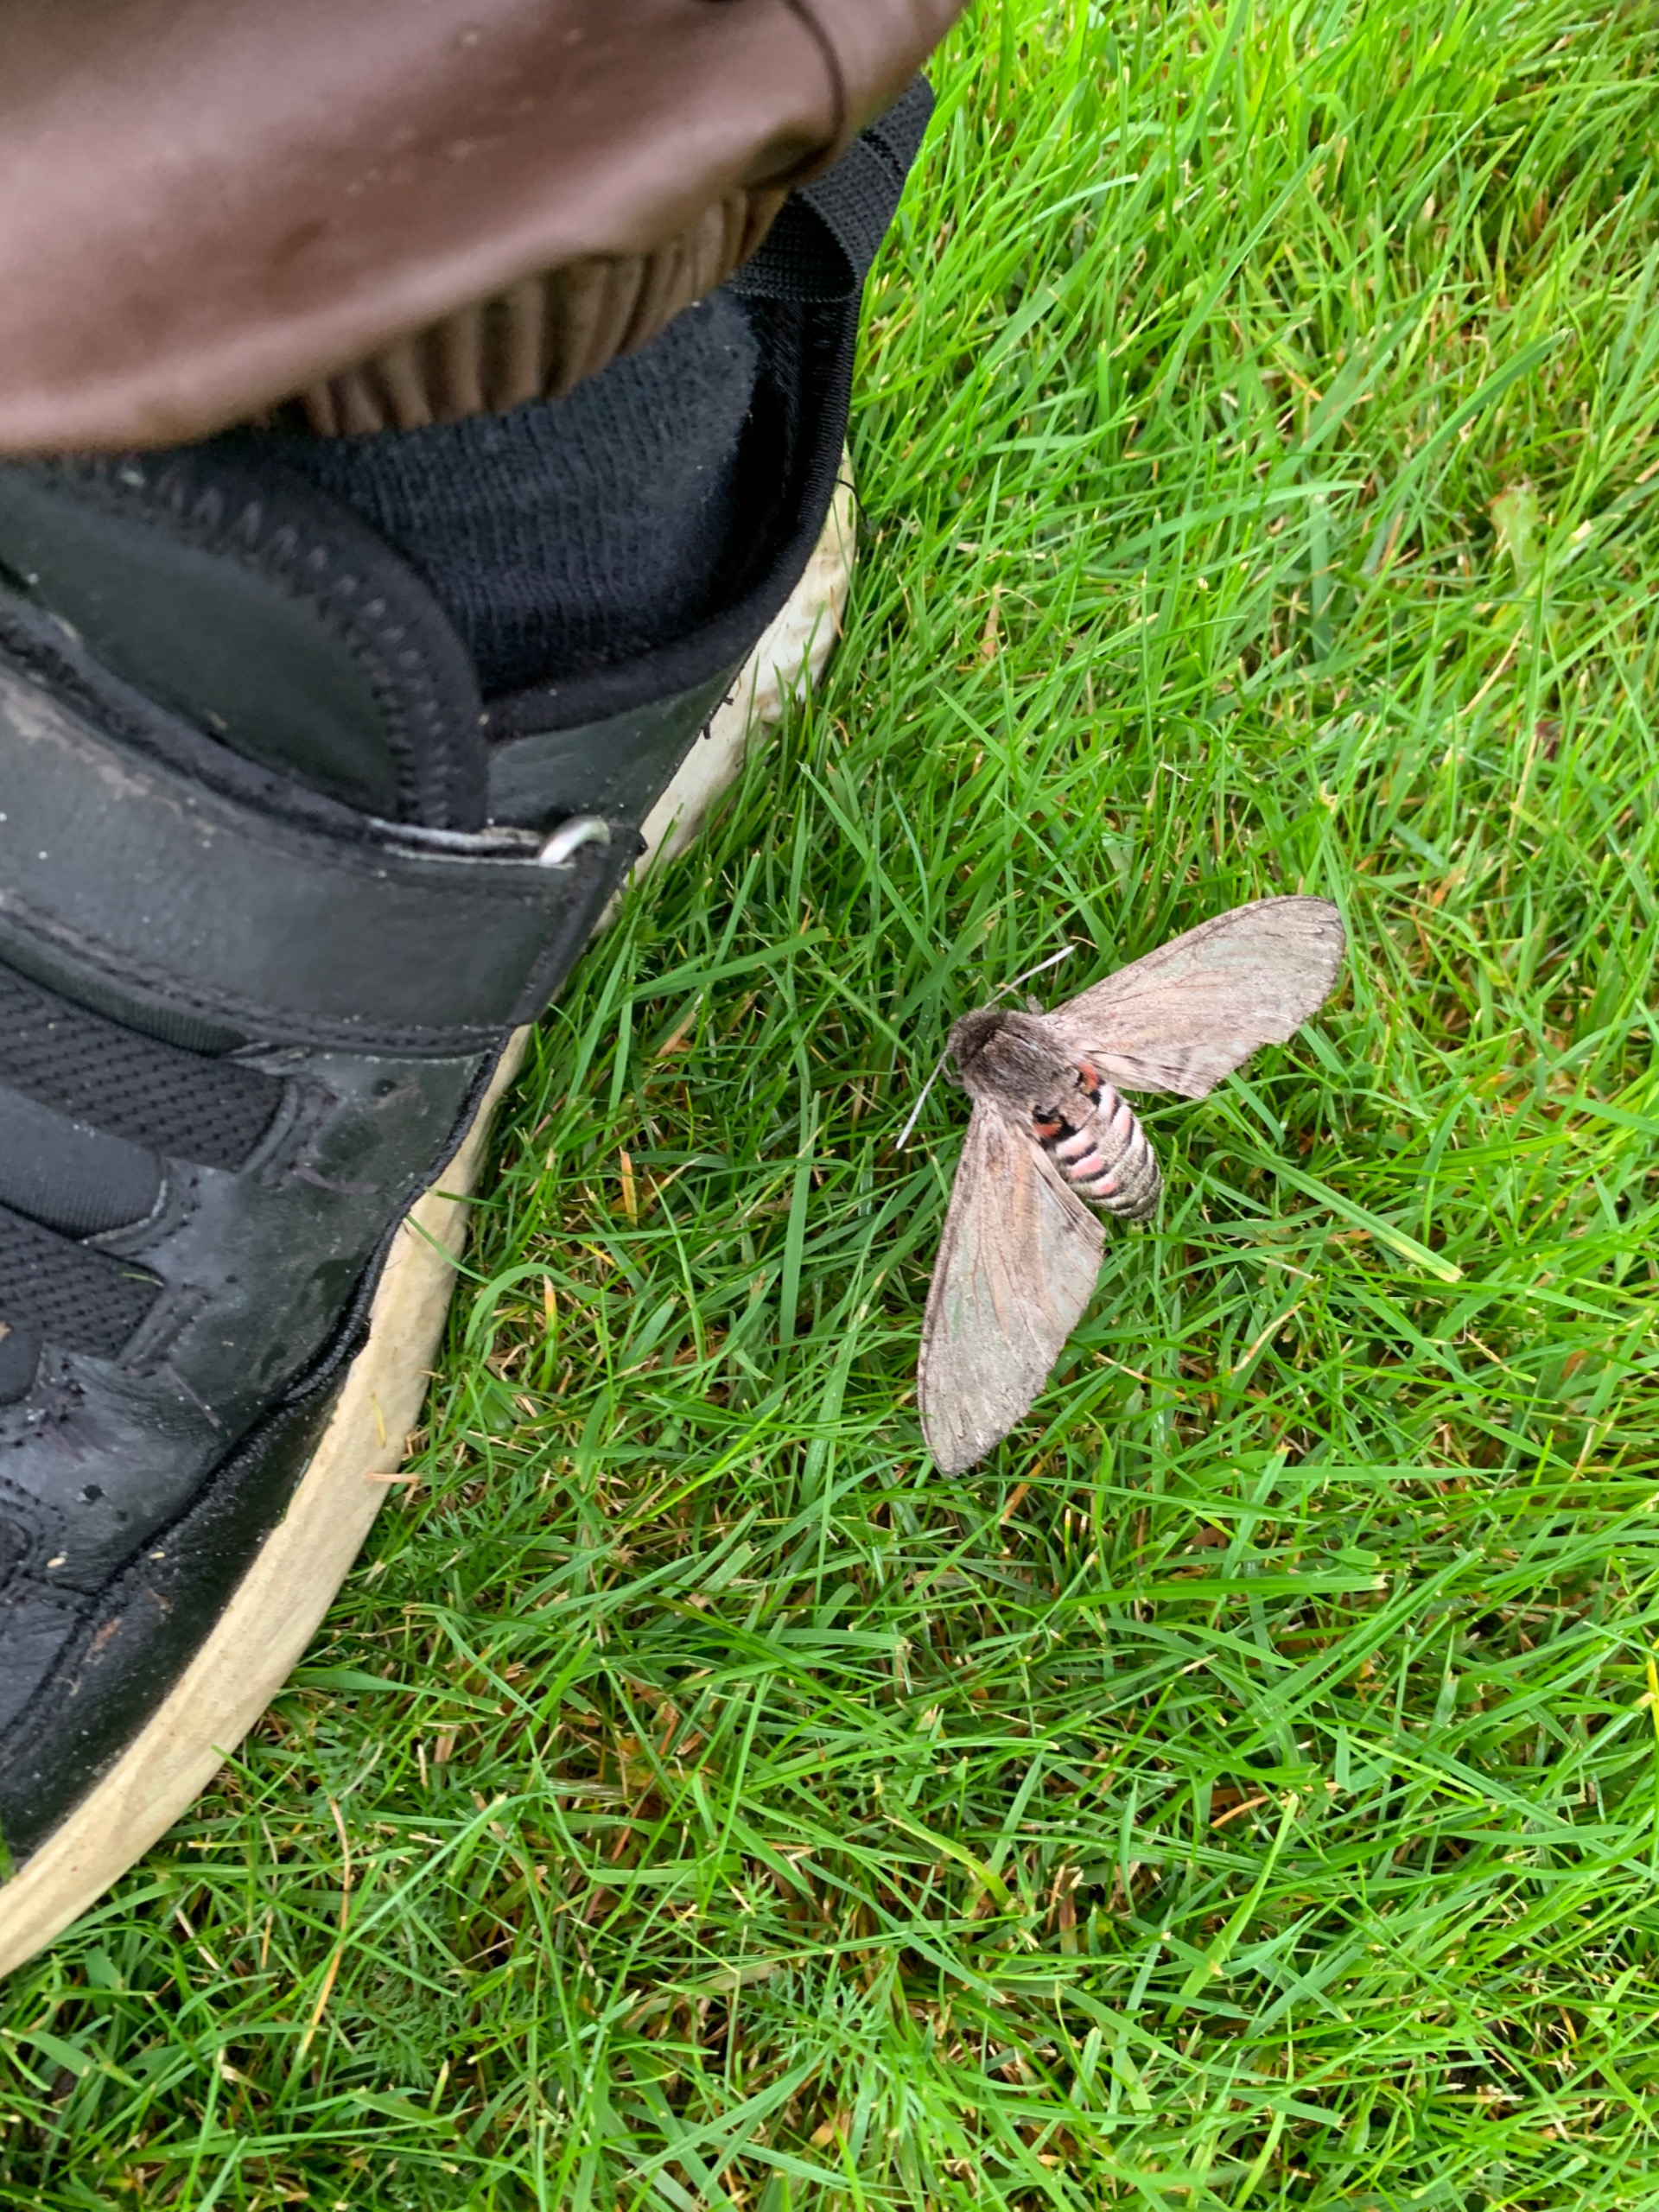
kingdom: Animalia
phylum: Arthropoda
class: Insecta
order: Lepidoptera
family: Sphingidae
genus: Agrius
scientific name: Agrius convolvuli
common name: Snerlesværmer
